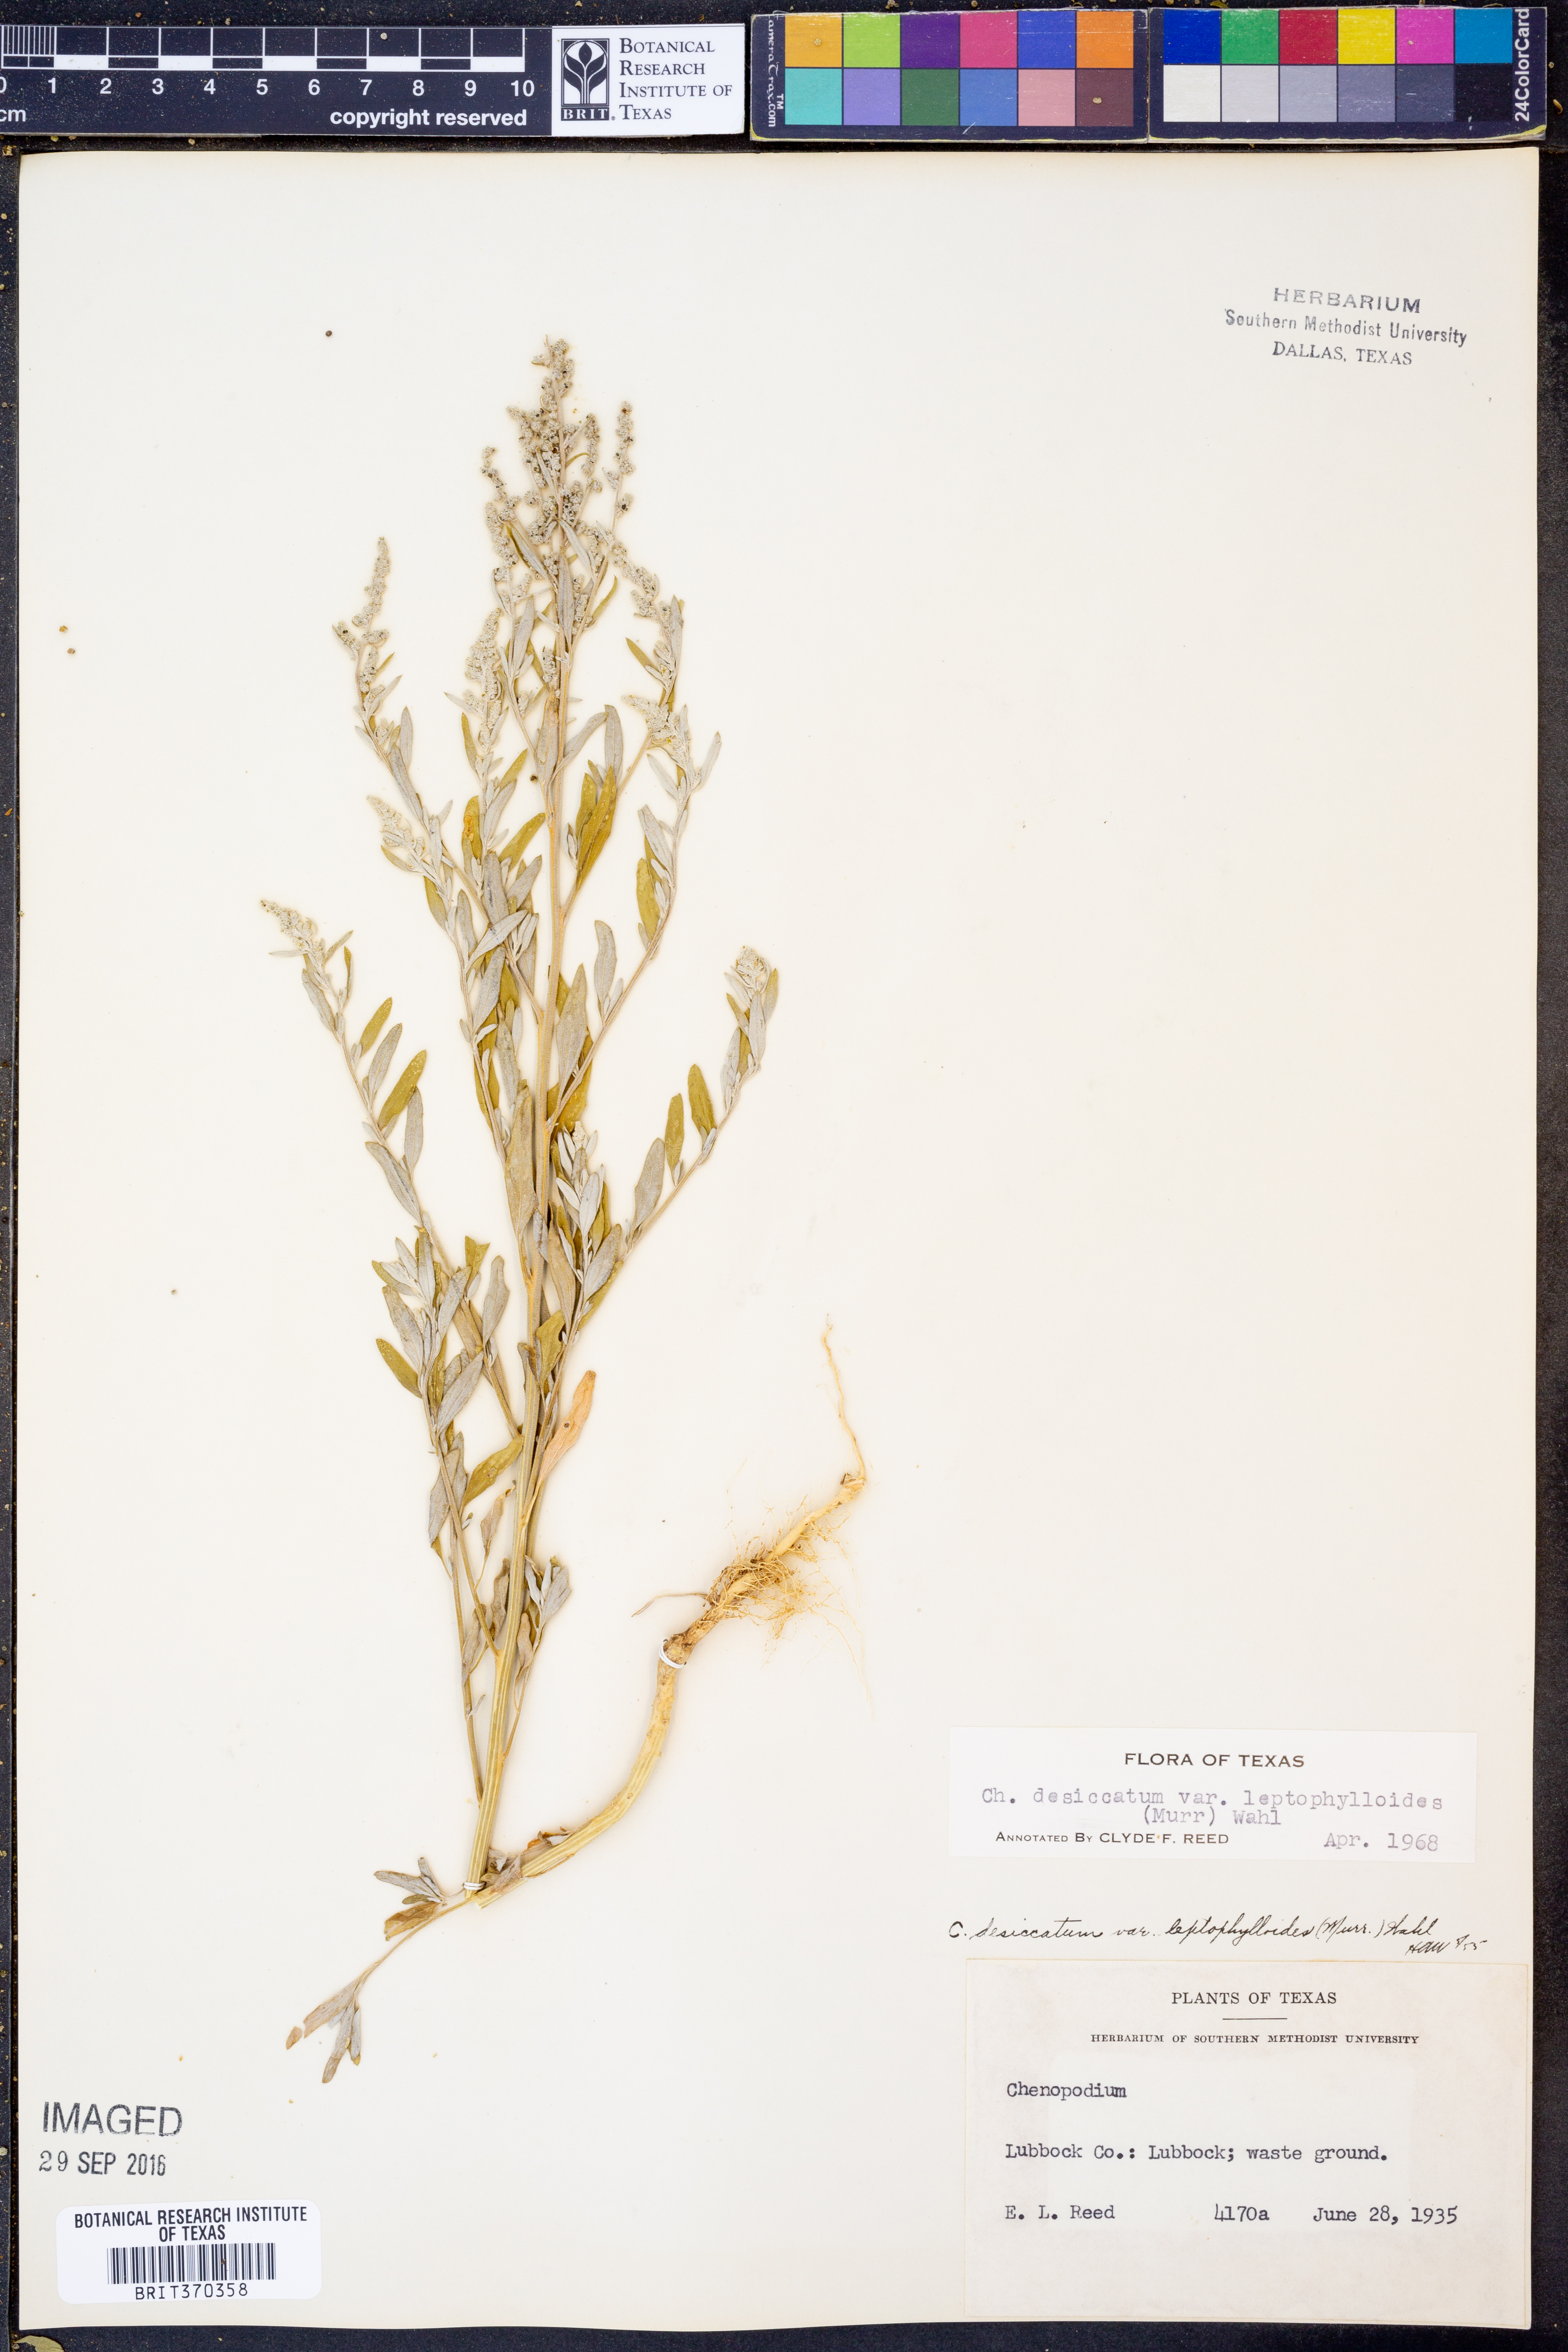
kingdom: Plantae
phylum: Tracheophyta
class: Magnoliopsida
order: Caryophyllales
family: Amaranthaceae
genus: Chenopodium
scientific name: Chenopodium pratericola
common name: Desert goosefoot
